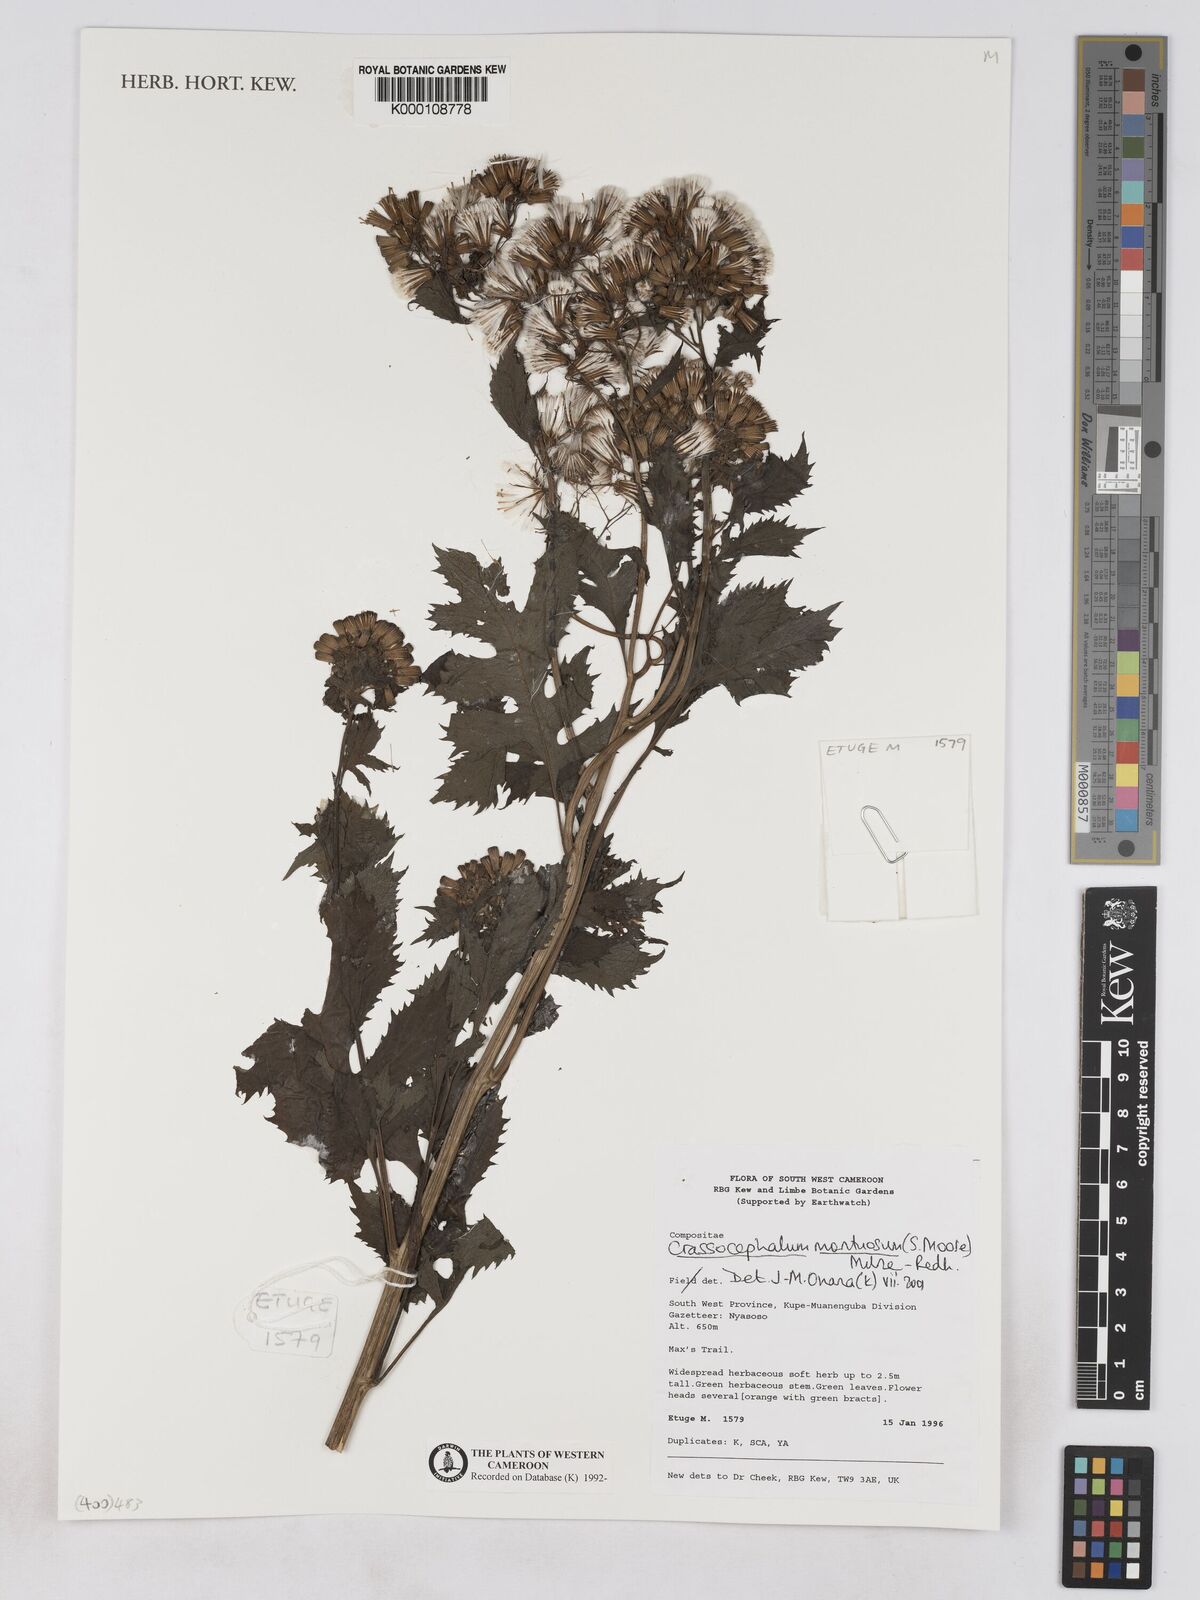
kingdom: Plantae
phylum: Tracheophyta
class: Magnoliopsida
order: Asterales
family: Asteraceae
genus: Crassocephalum
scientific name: Crassocephalum montuosum
